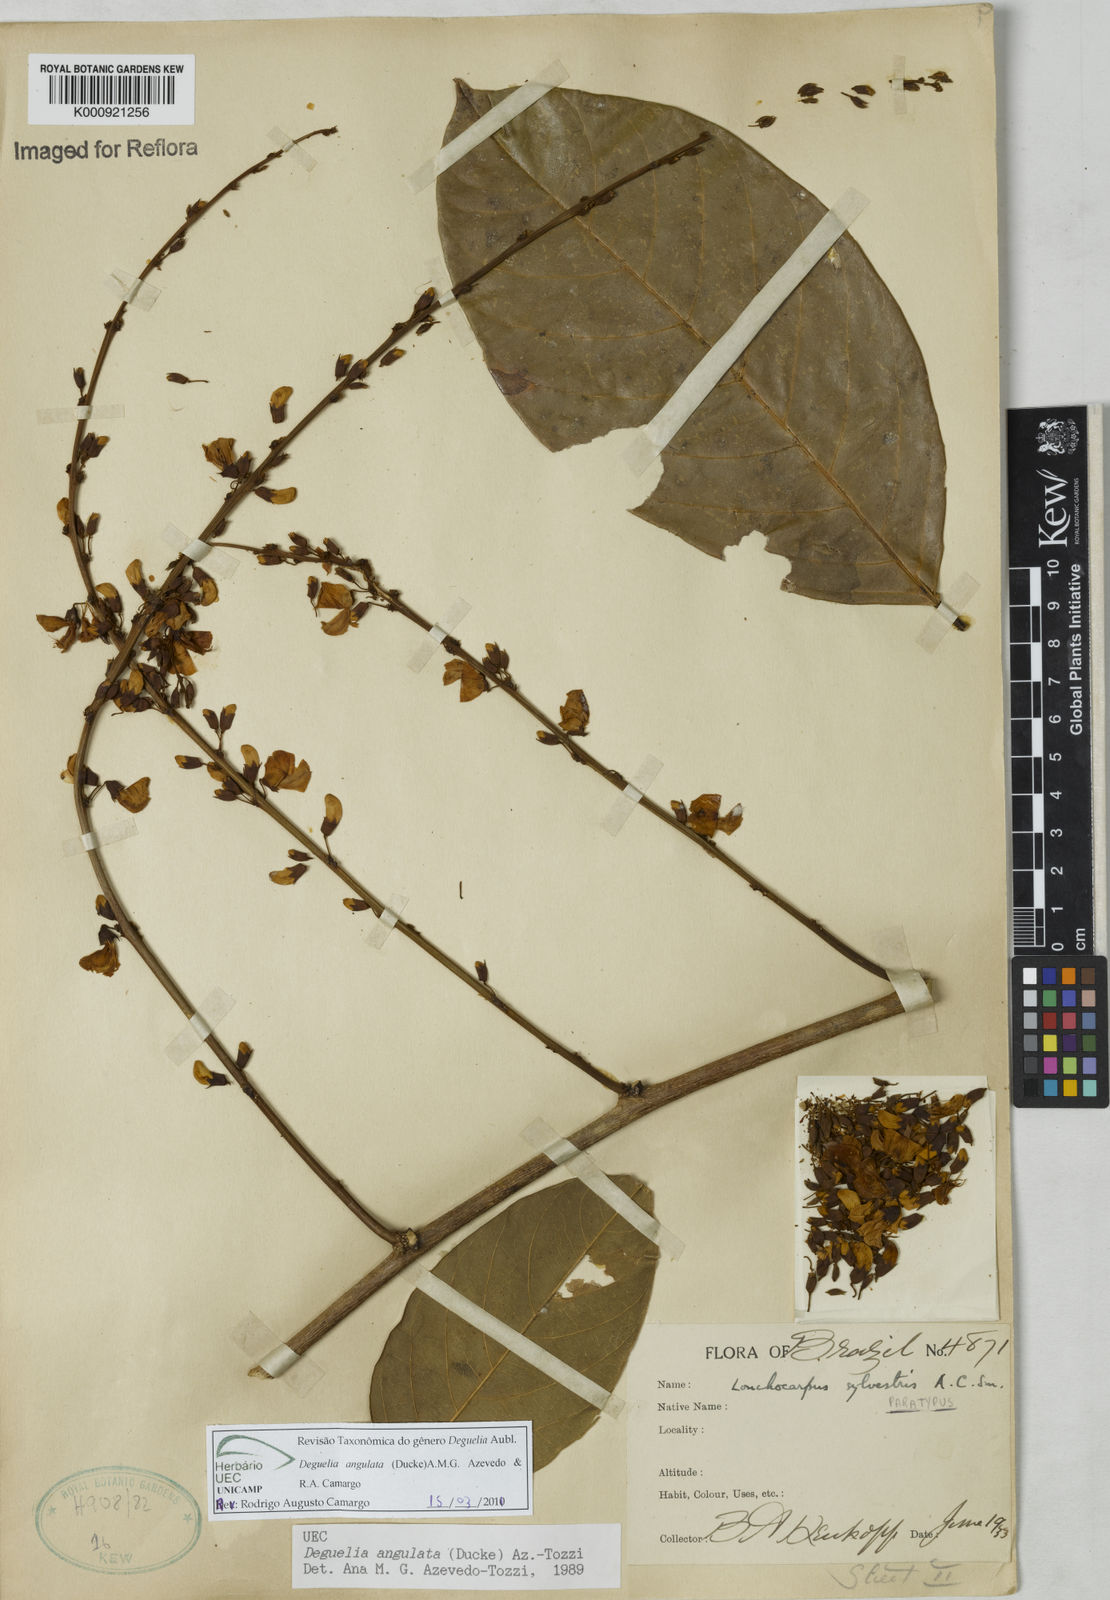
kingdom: Plantae
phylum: Tracheophyta
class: Magnoliopsida
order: Fabales
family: Fabaceae
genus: Deguelia
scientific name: Deguelia angulata
